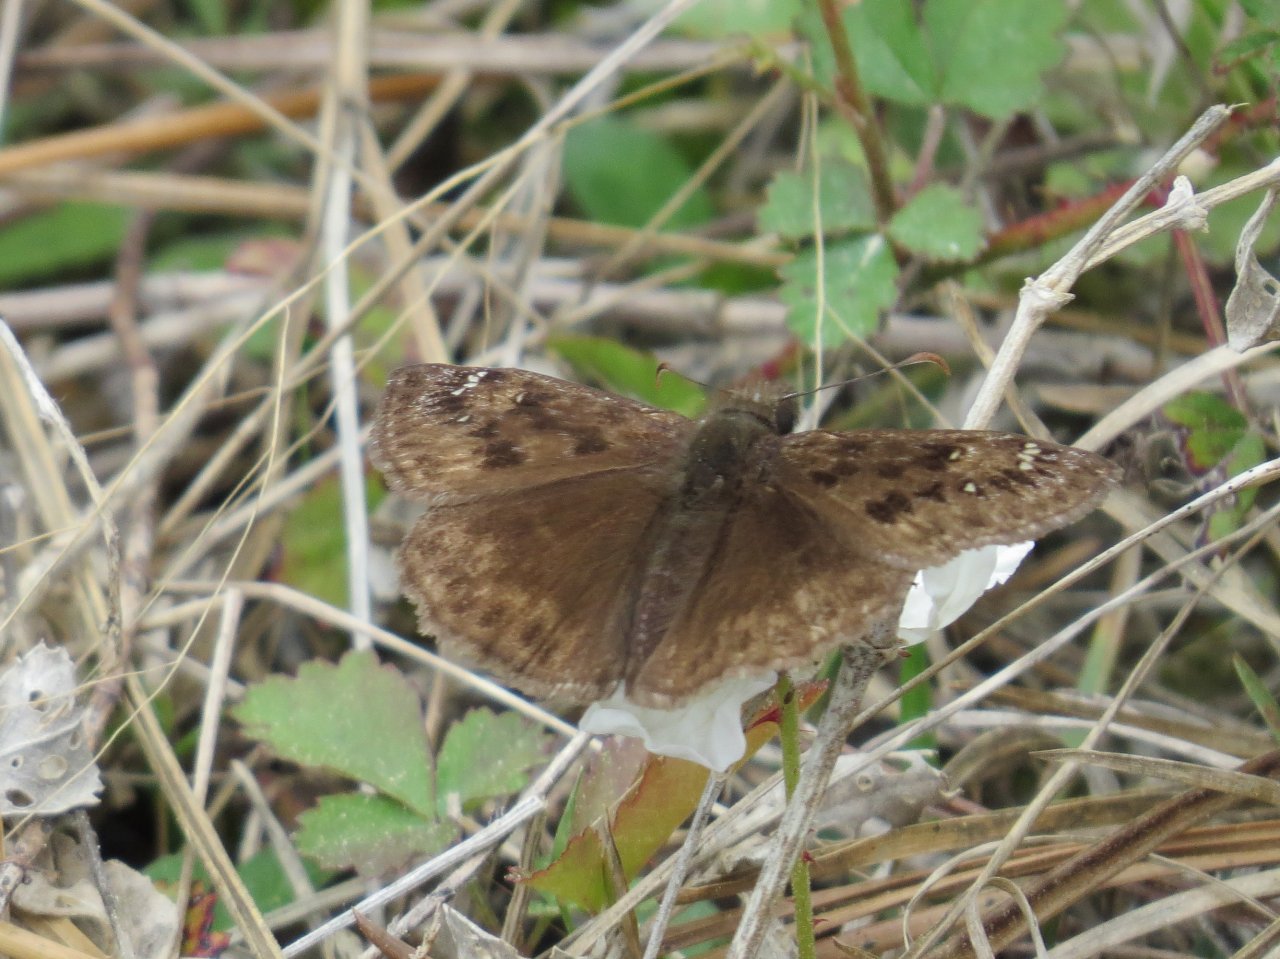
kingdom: Animalia
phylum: Arthropoda
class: Insecta
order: Lepidoptera
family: Hesperiidae
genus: Gesta
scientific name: Gesta
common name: Horace's Duskywing
